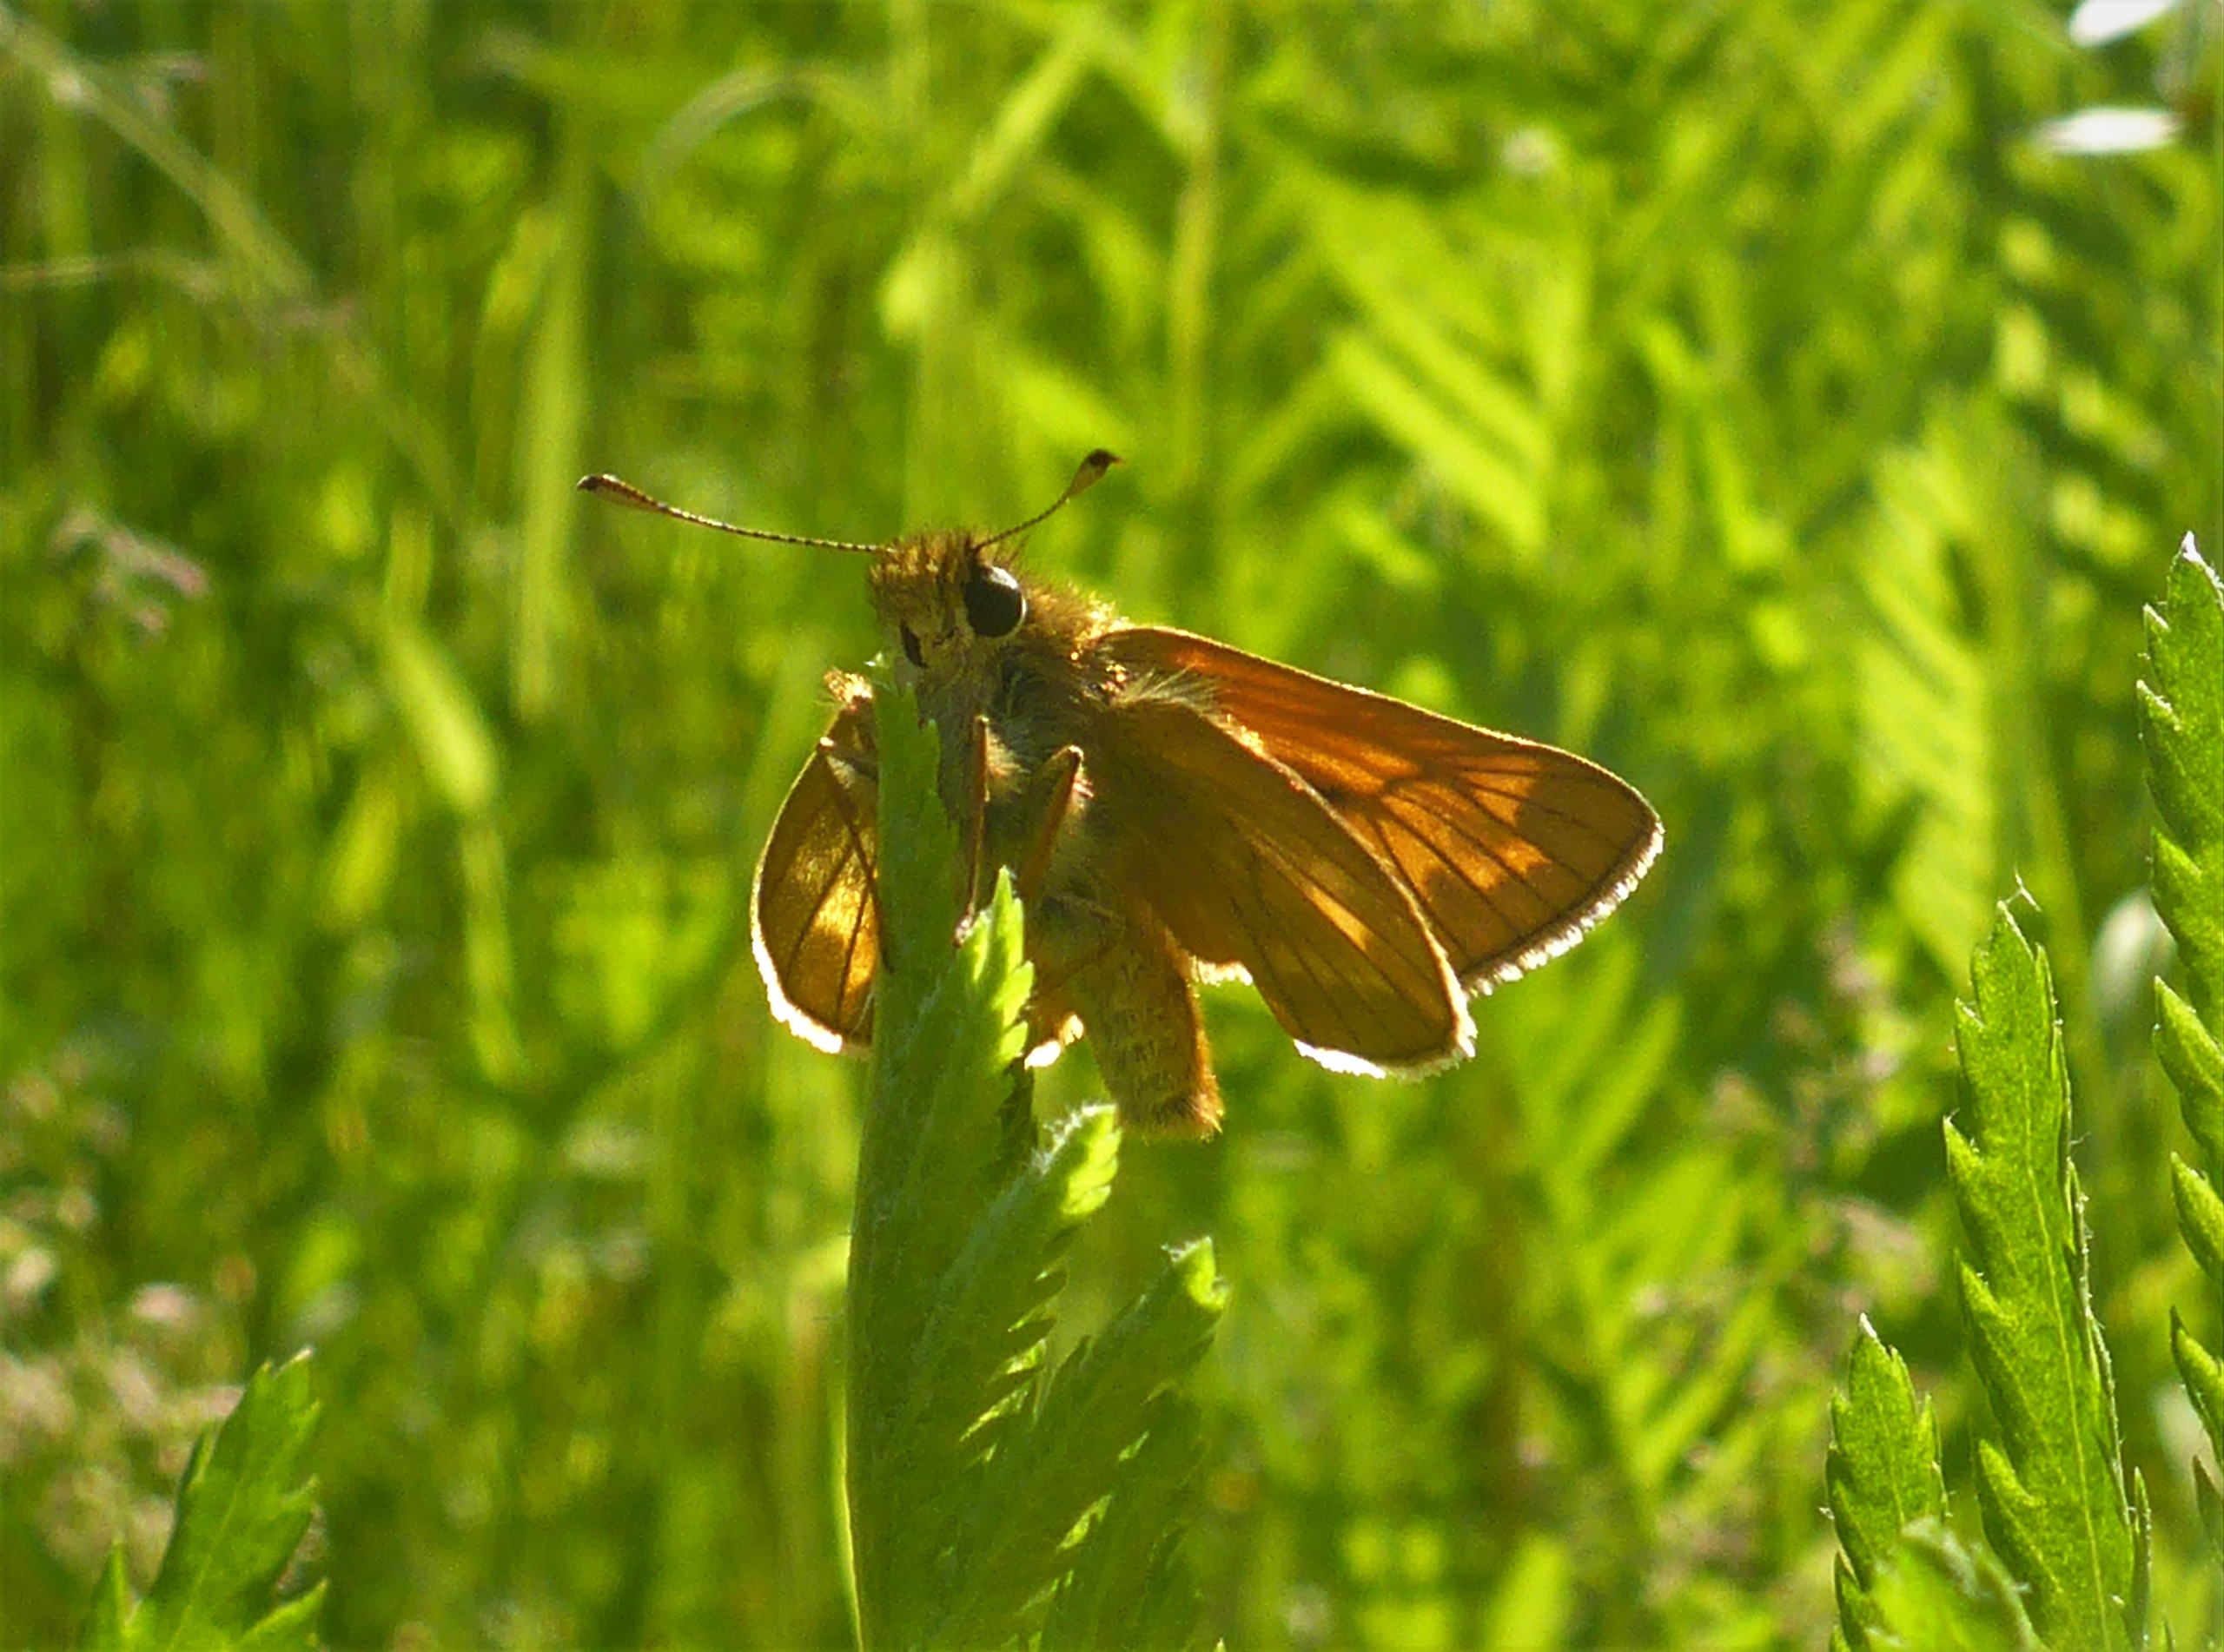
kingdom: Animalia
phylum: Arthropoda
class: Insecta
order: Lepidoptera
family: Hesperiidae
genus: Ochlodes
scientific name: Ochlodes venata
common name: Stor bredpande
